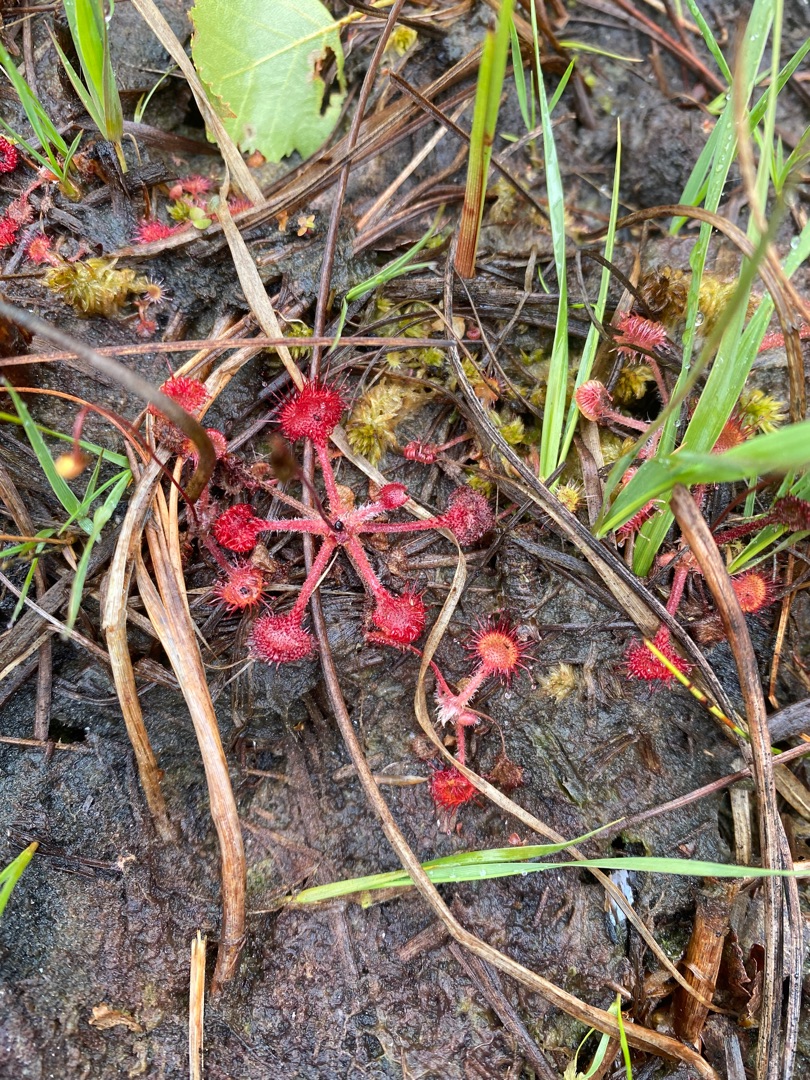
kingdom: Plantae
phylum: Tracheophyta
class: Magnoliopsida
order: Caryophyllales
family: Droseraceae
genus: Drosera
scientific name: Drosera rotundifolia
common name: Rundbladet soldug
